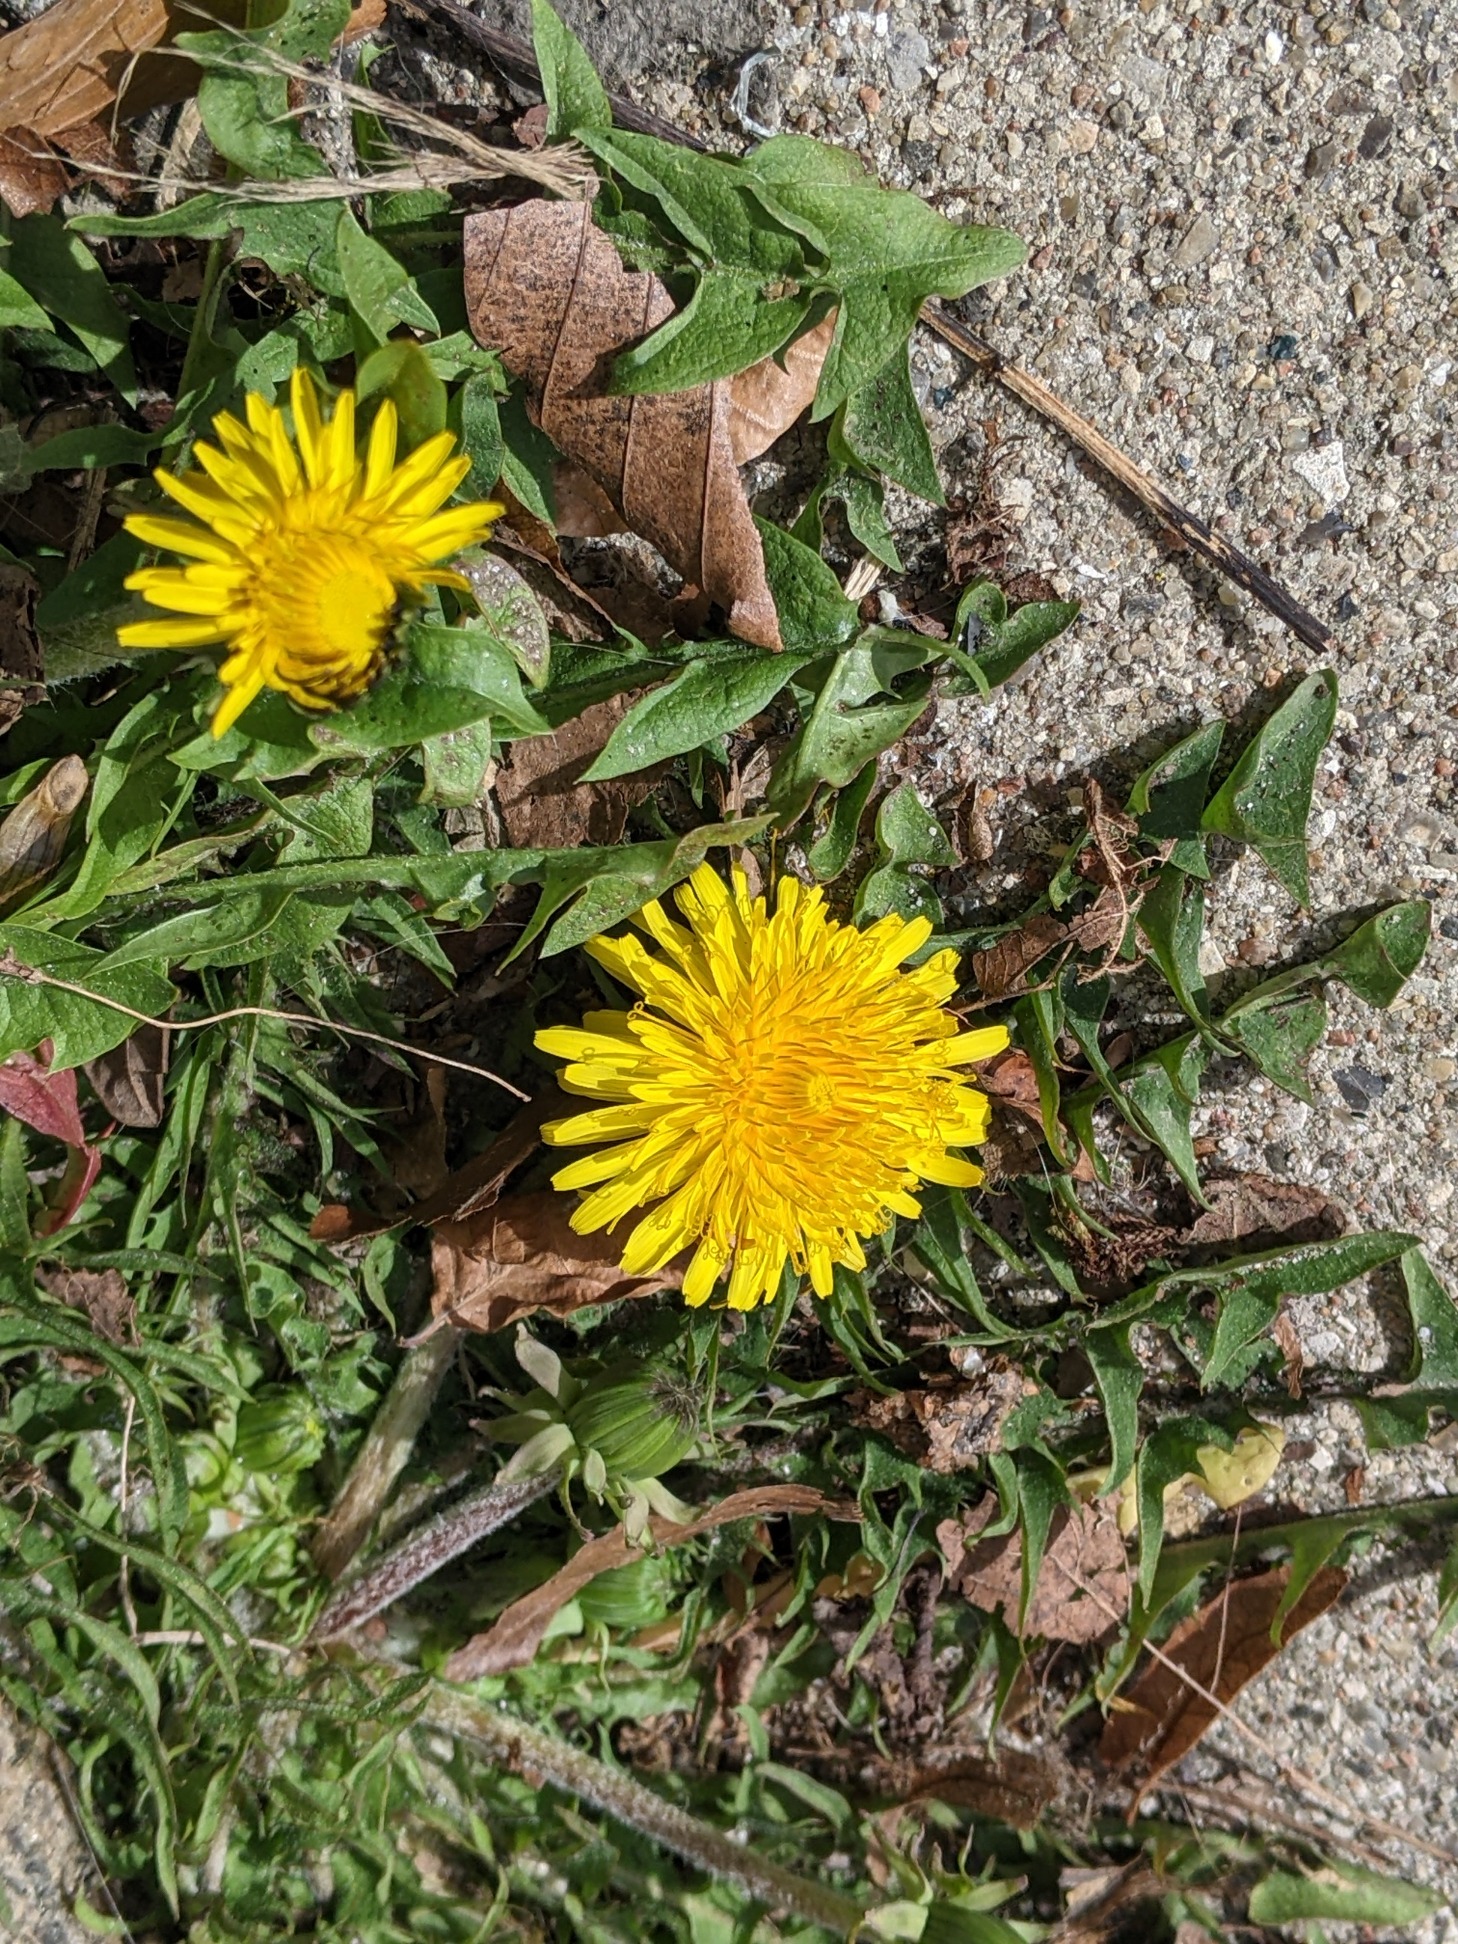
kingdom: Plantae
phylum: Tracheophyta
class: Magnoliopsida
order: Asterales
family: Asteraceae
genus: Taraxacum
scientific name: Taraxacum
